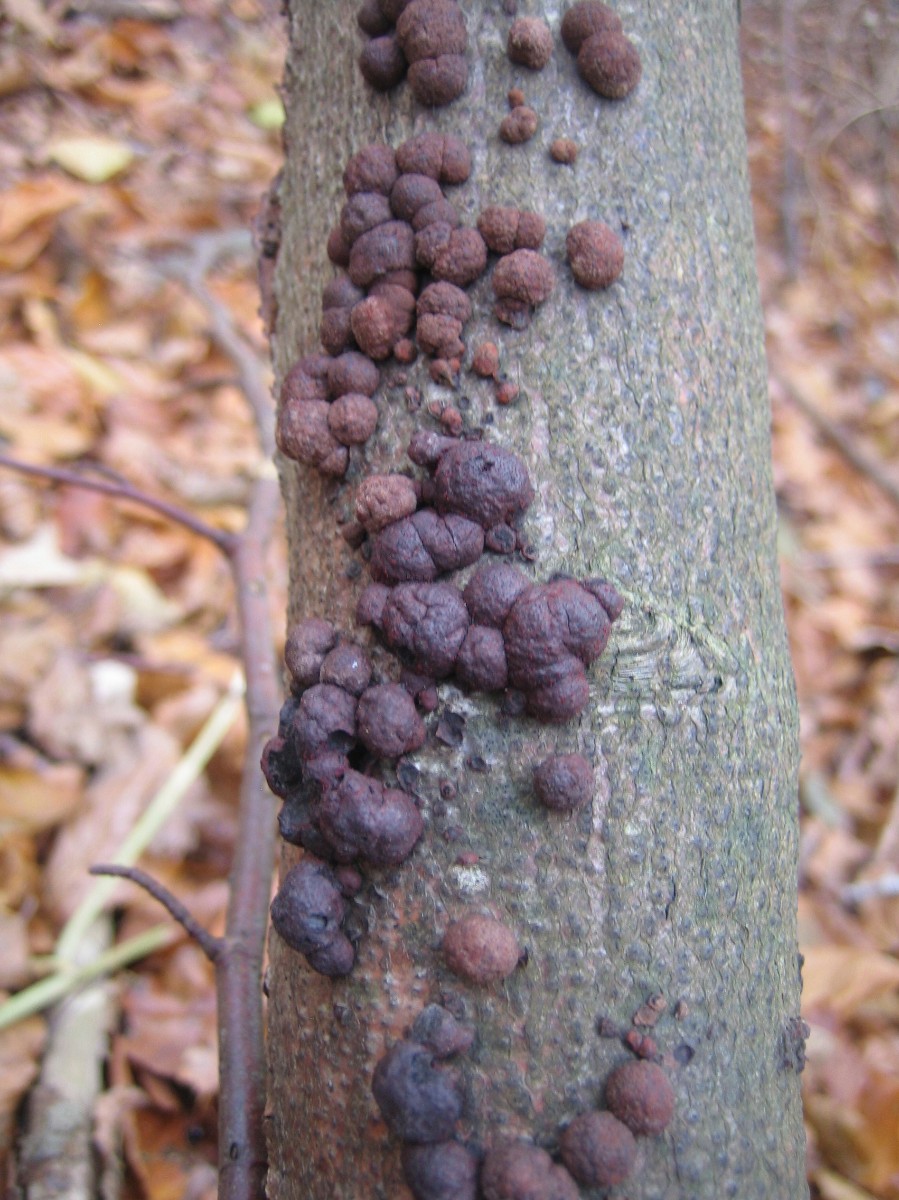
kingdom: Fungi
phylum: Ascomycota
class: Sordariomycetes
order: Xylariales
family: Hypoxylaceae
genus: Hypoxylon
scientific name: Hypoxylon fragiforme
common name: kuljordbær
